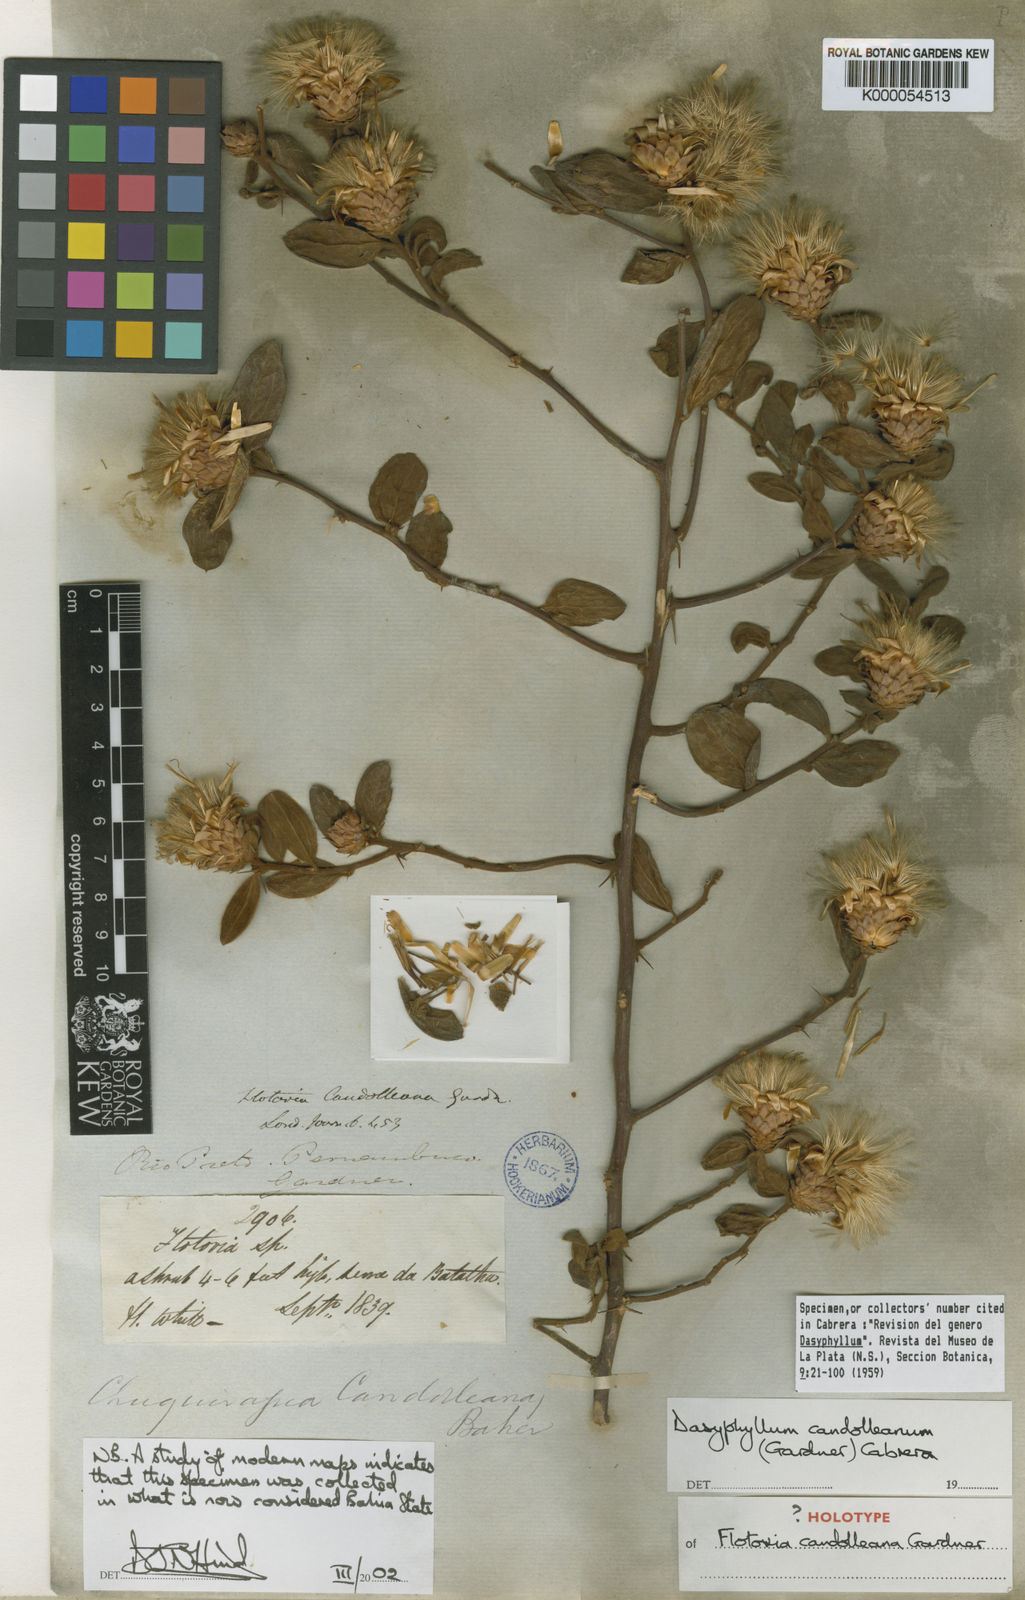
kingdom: Plantae
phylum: Tracheophyta
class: Magnoliopsida
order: Asterales
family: Asteraceae
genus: Dasyphyllum
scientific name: Dasyphyllum candolleanum
